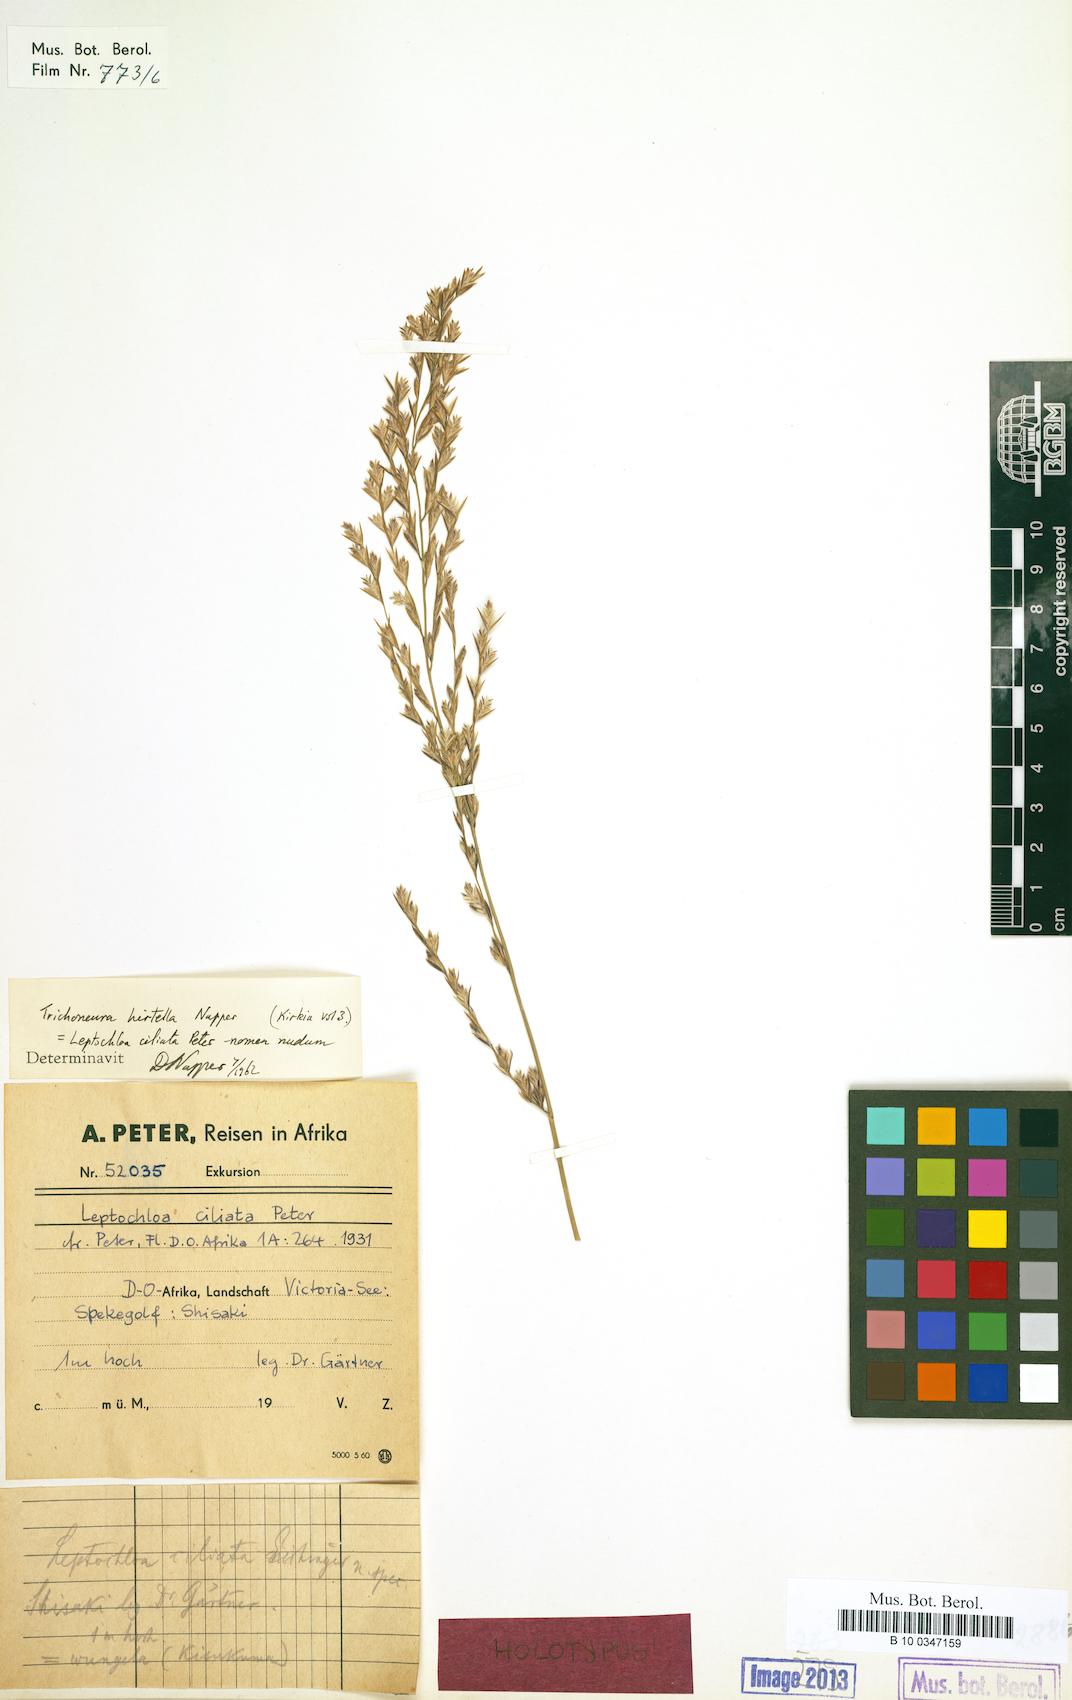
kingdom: Plantae
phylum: Tracheophyta
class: Liliopsida
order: Poales
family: Poaceae
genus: Trichoneura
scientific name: Trichoneura ciliata
